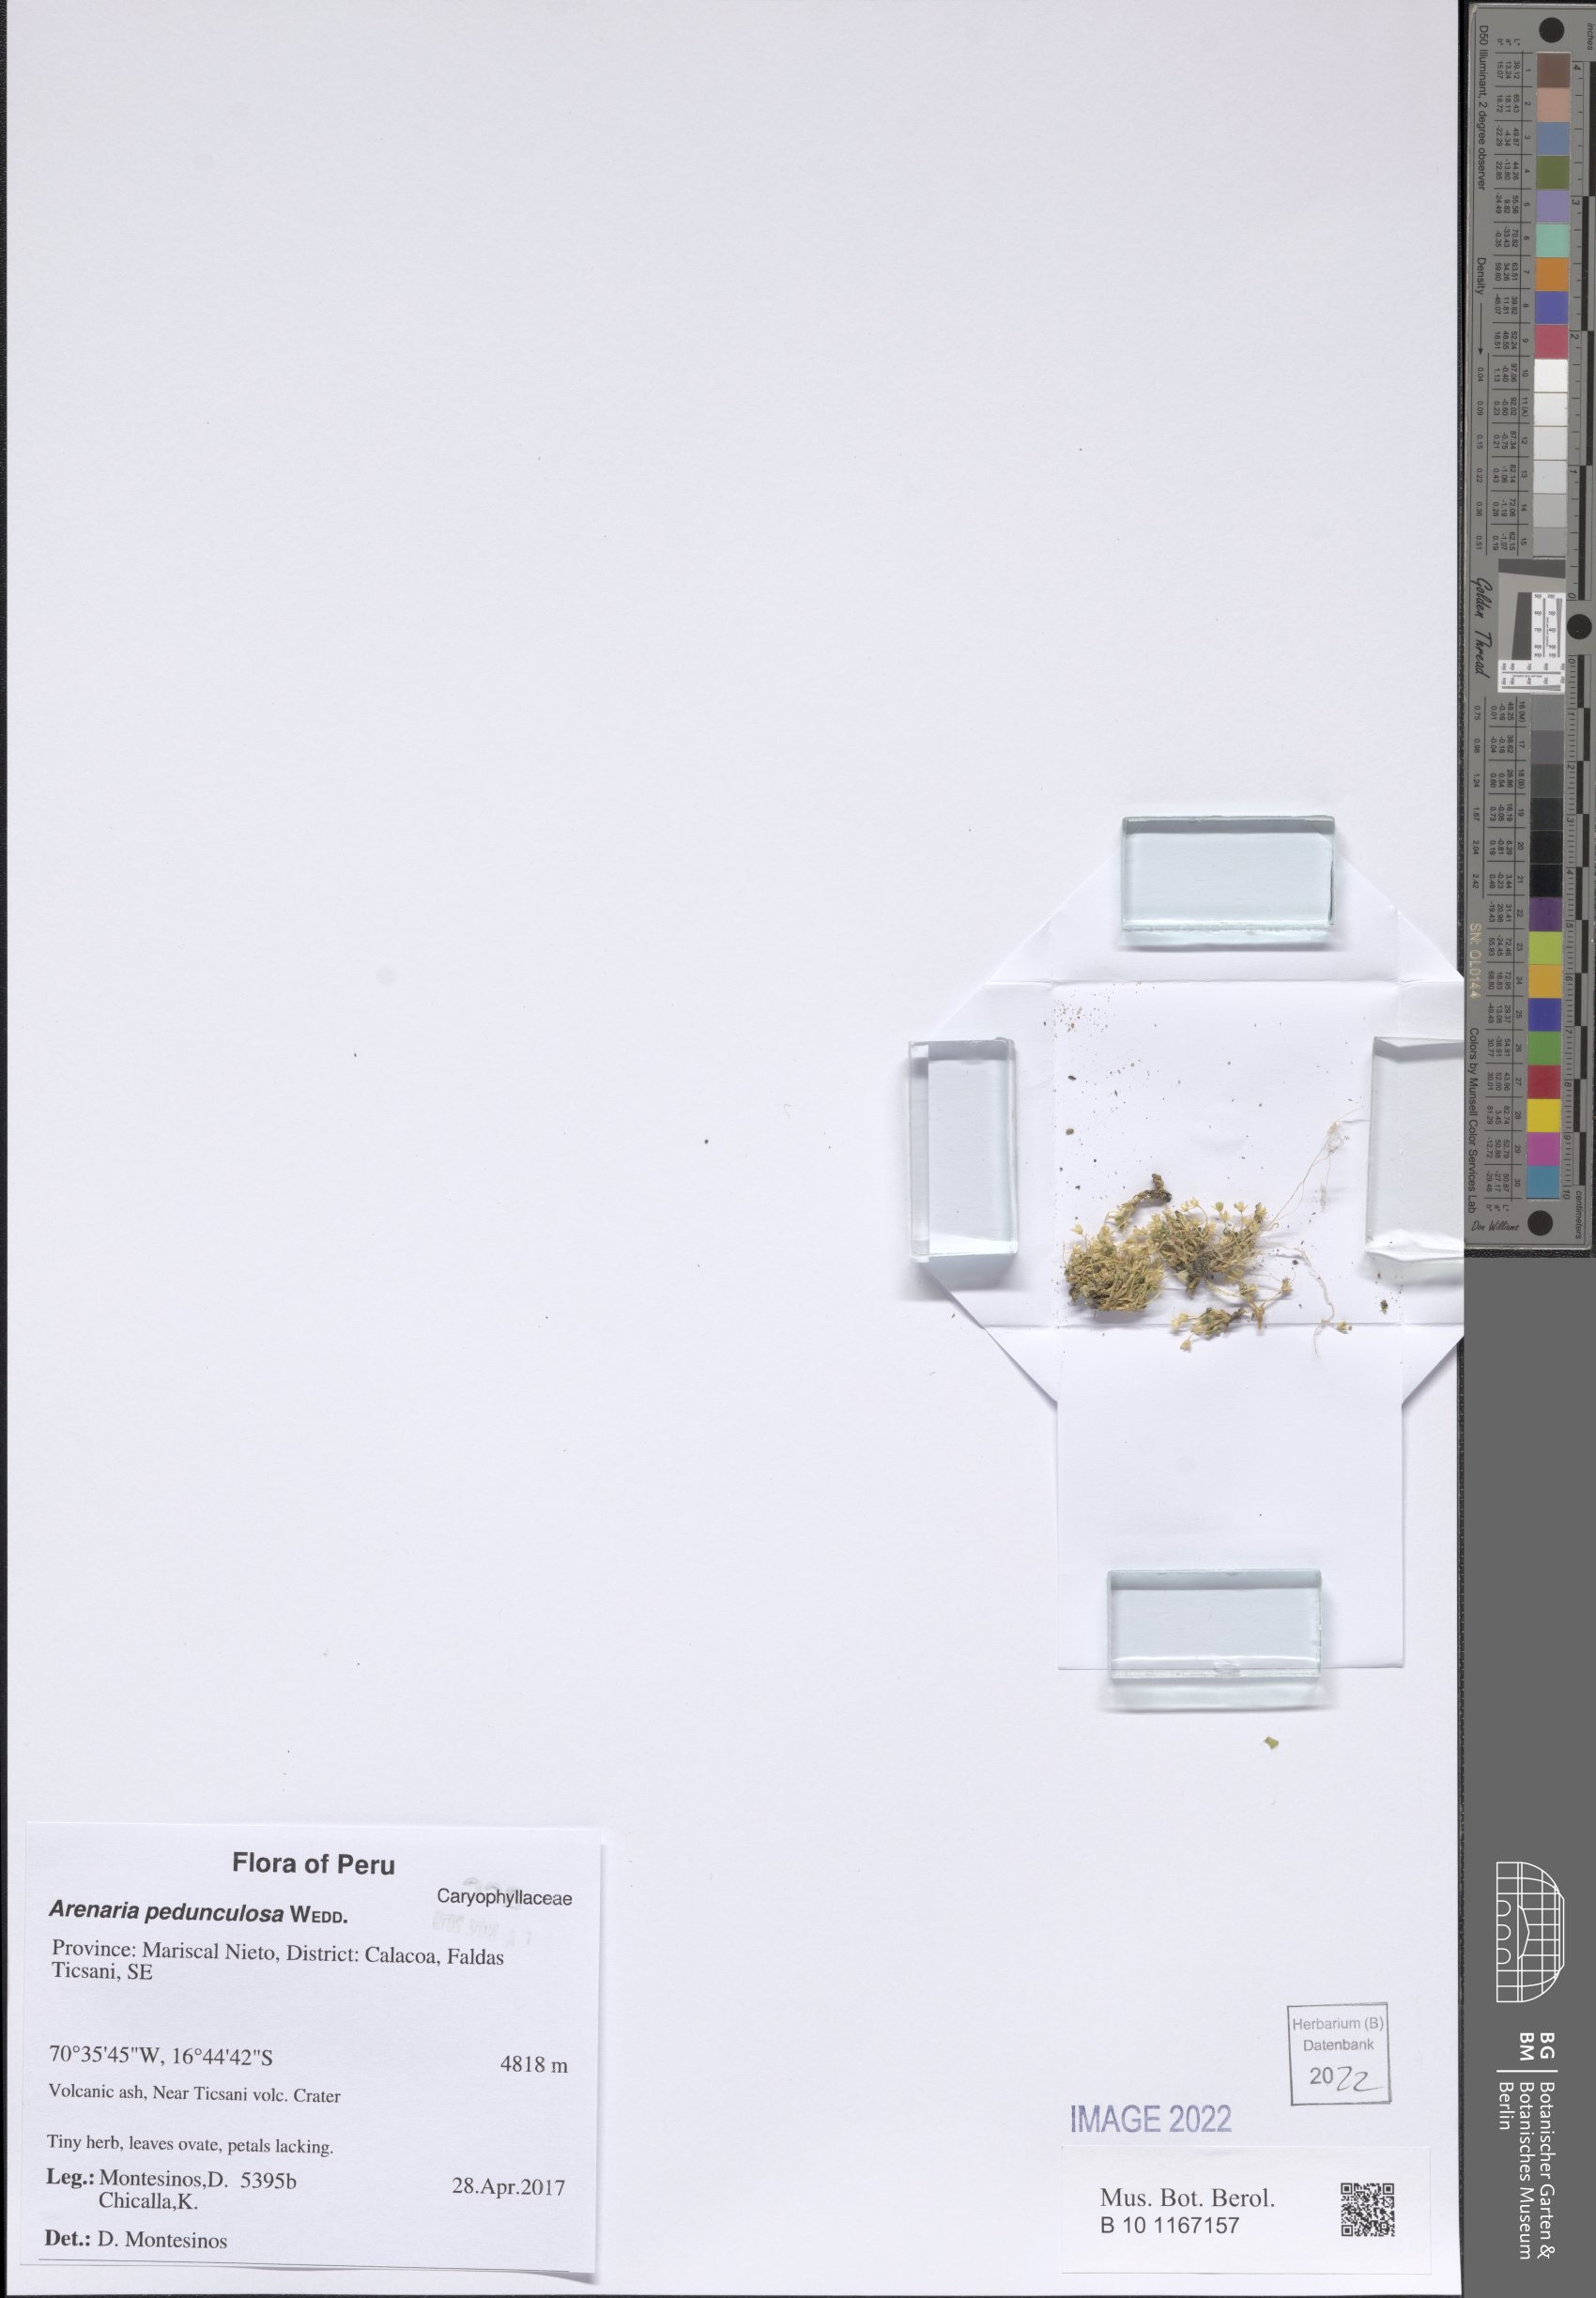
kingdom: Plantae
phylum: Tracheophyta
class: Magnoliopsida
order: Caryophyllales
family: Caryophyllaceae
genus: Arenaria
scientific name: Arenaria pedunculosa
